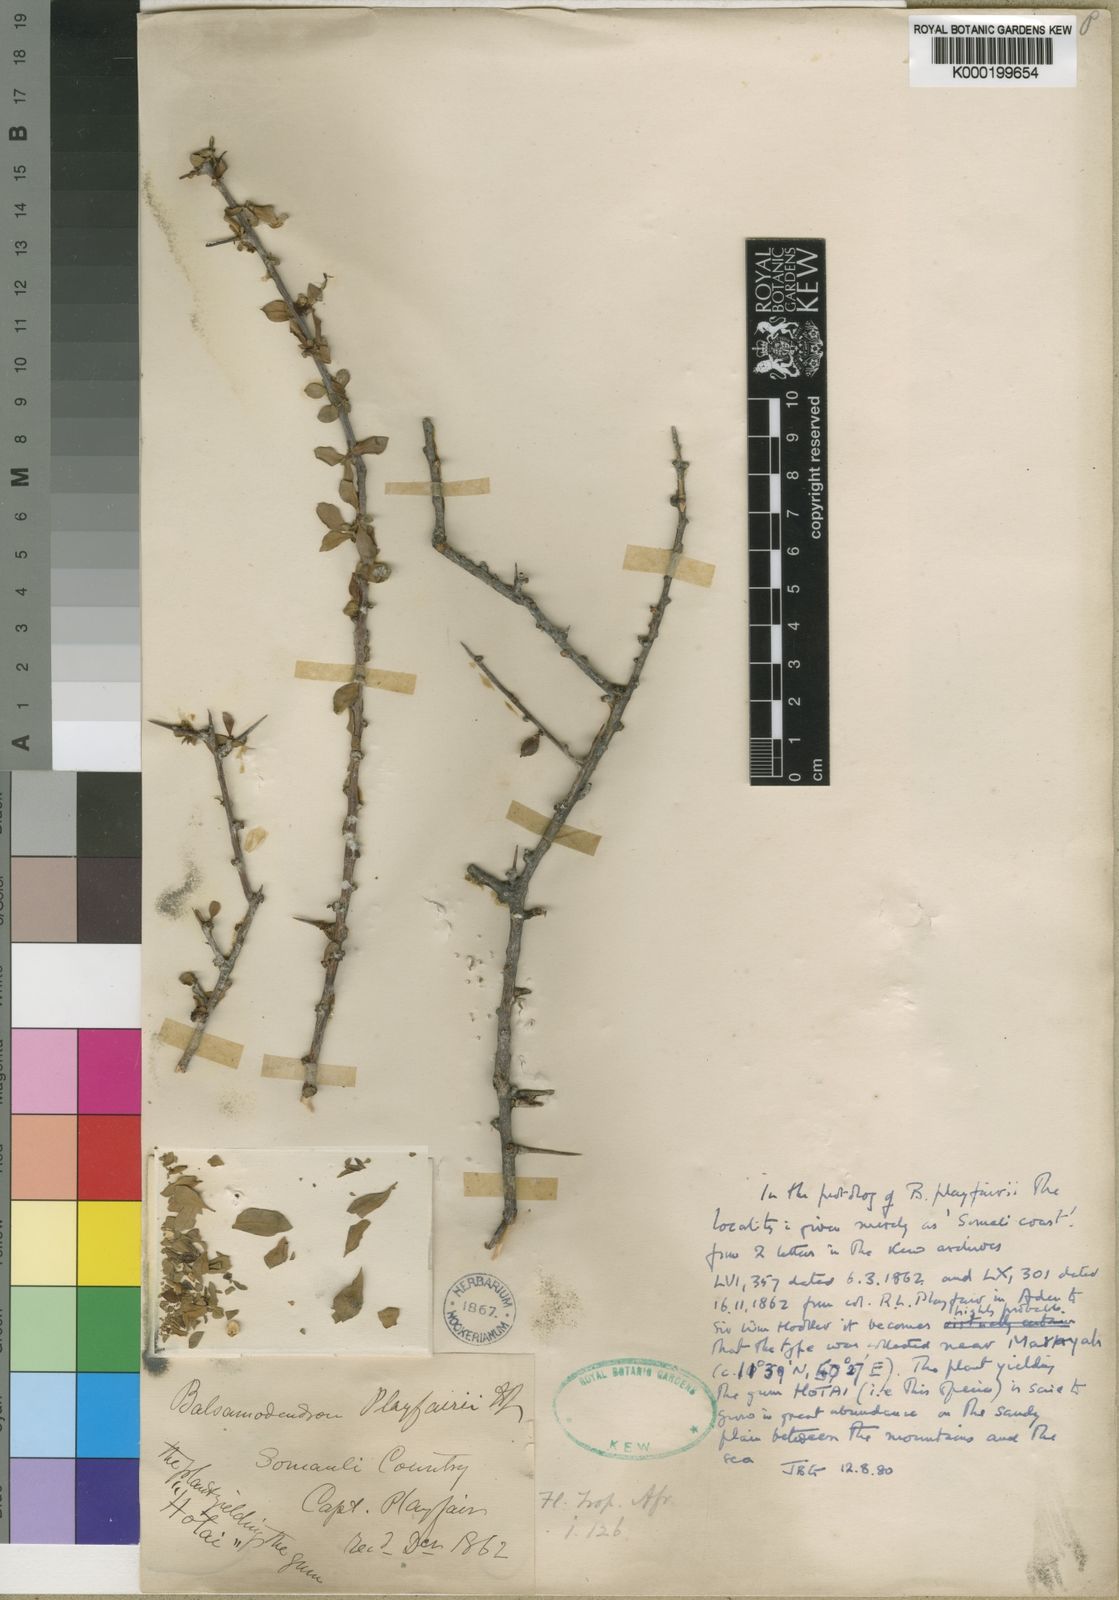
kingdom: Plantae
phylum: Tracheophyta
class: Magnoliopsida
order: Sapindales
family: Burseraceae
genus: Commiphora
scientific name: Commiphora playfairii
